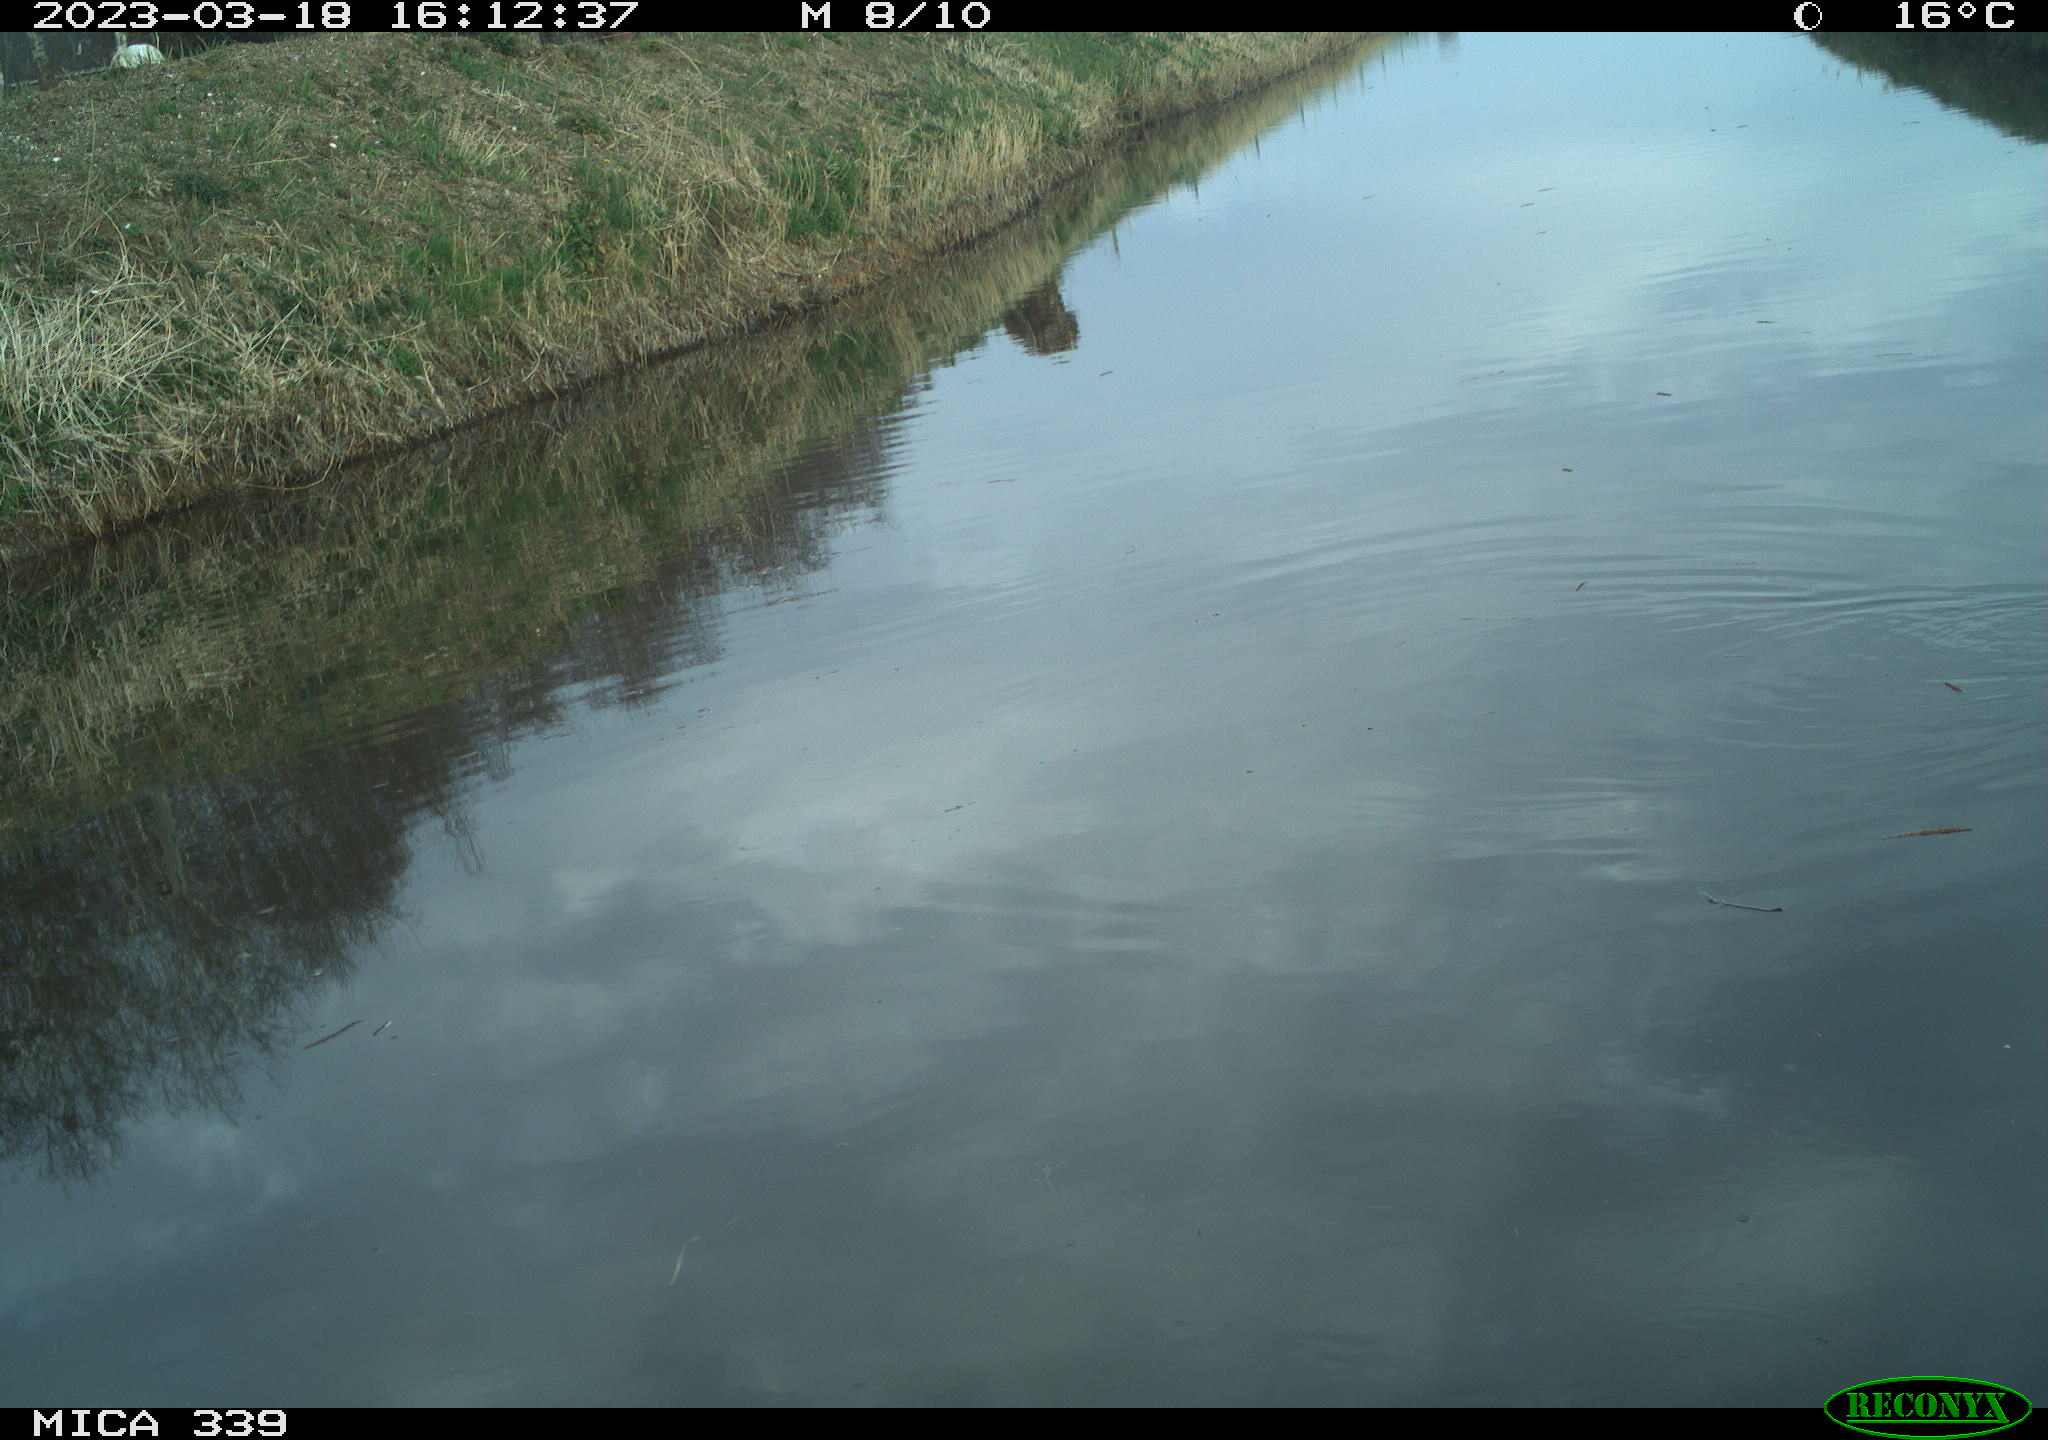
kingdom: Animalia
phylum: Chordata
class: Aves
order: Gruiformes
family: Rallidae
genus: Fulica
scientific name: Fulica atra
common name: Eurasian coot
